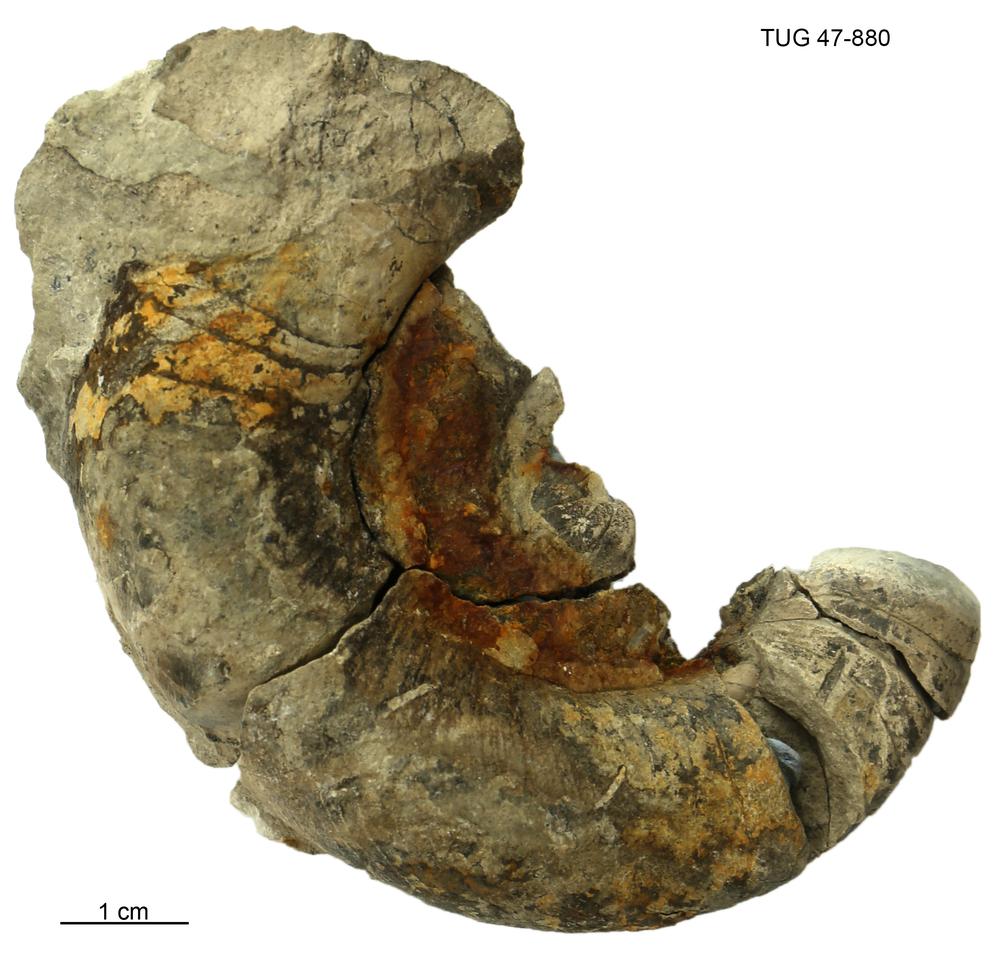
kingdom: Animalia
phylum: Mollusca
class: Cephalopoda
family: Trocholitidae
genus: Discoceras
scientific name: Discoceras
